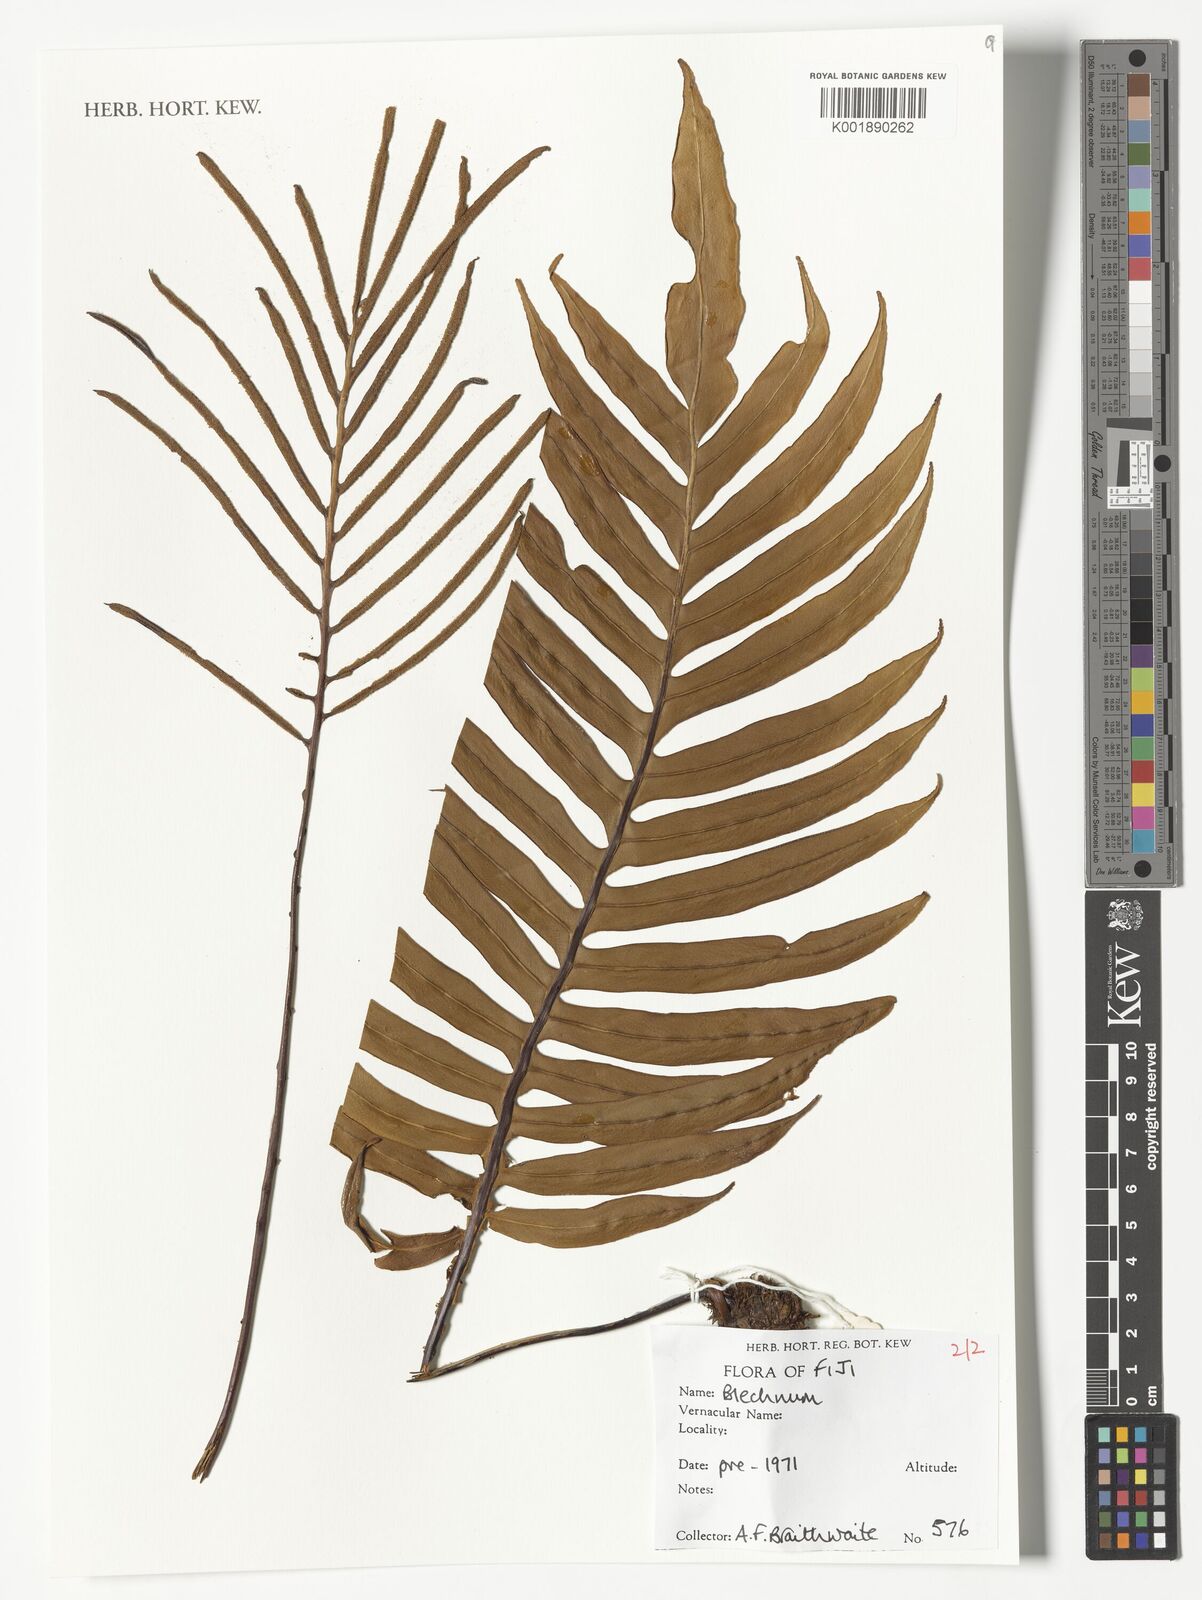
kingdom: Plantae
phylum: Tracheophyta
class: Polypodiopsida
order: Polypodiales
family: Blechnaceae
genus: Blechnum
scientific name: Blechnum
